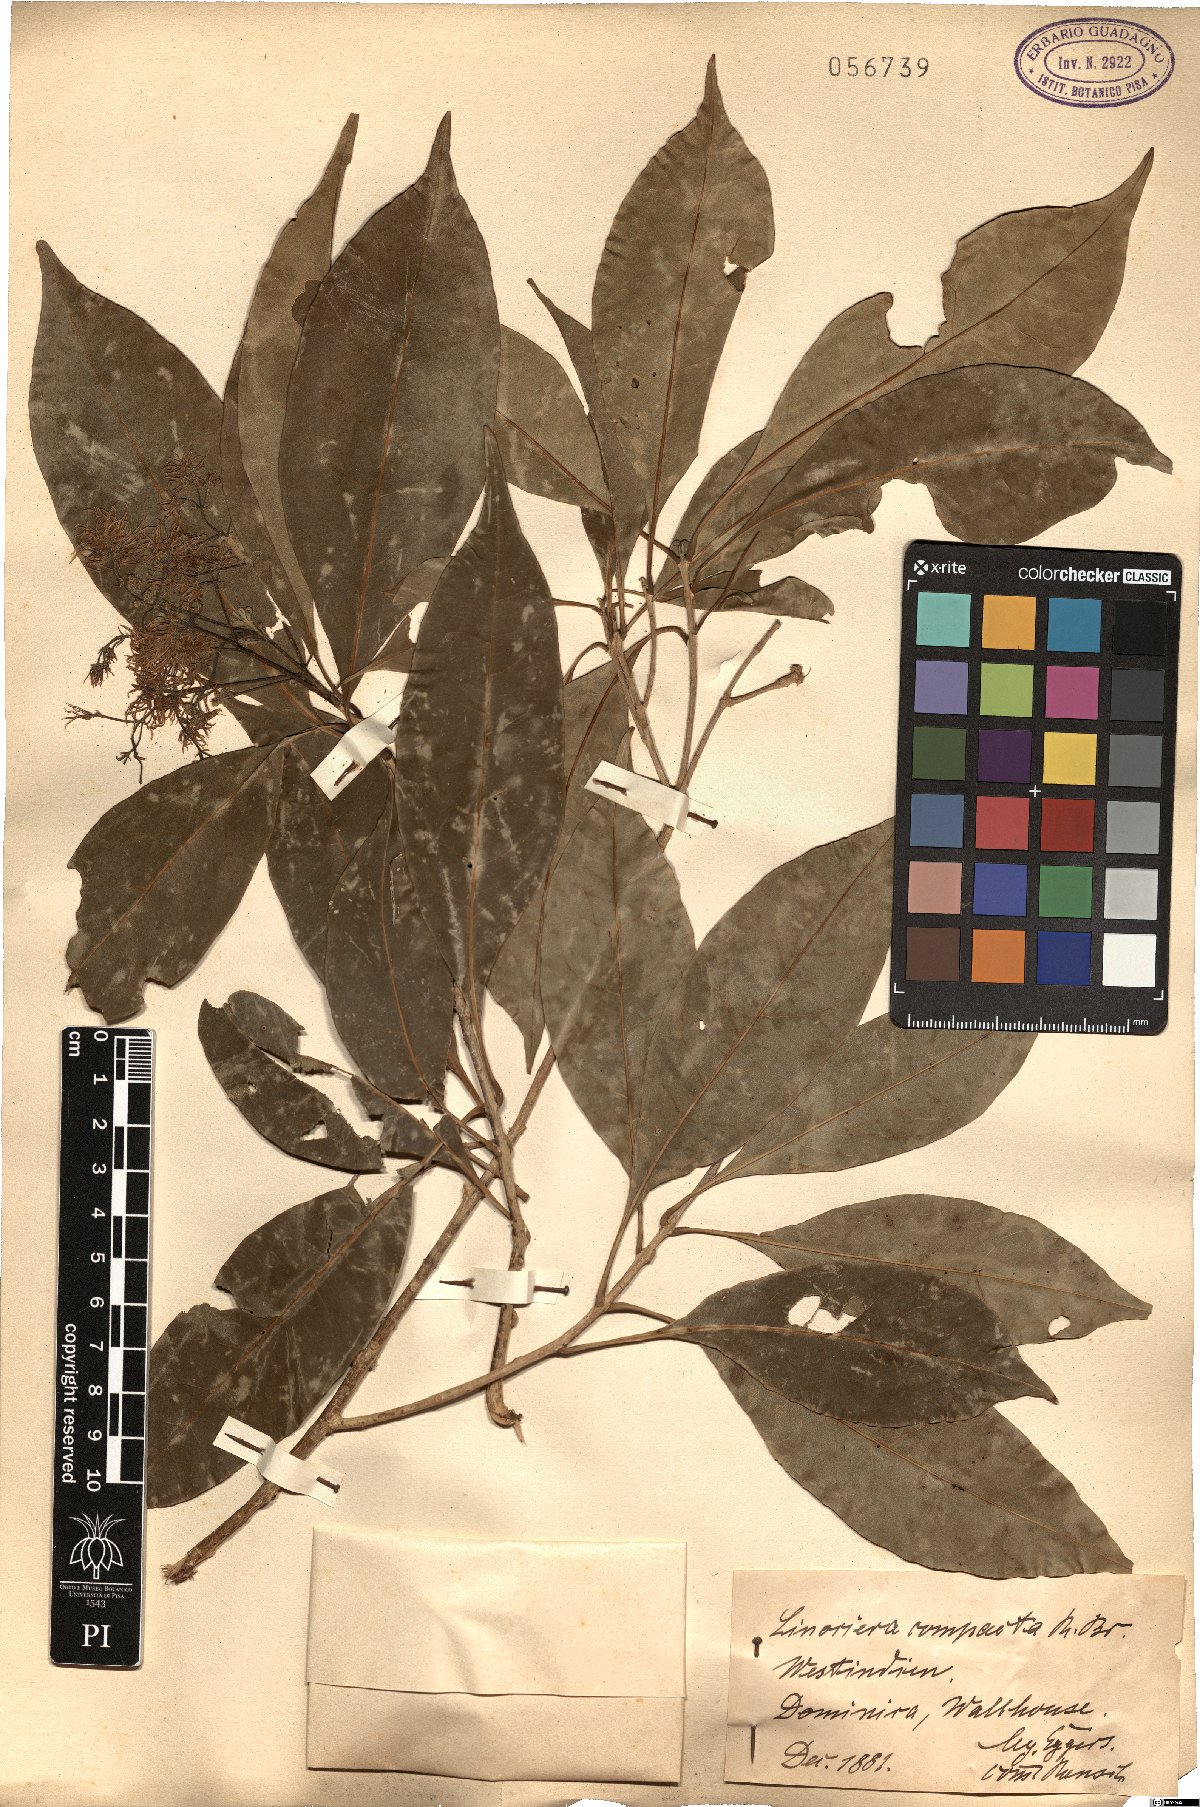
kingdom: Plantae
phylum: Tracheophyta
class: Magnoliopsida
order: Lamiales
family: Oleaceae
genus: Chionanthus
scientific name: Chionanthus compactus
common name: Bridgo tree
